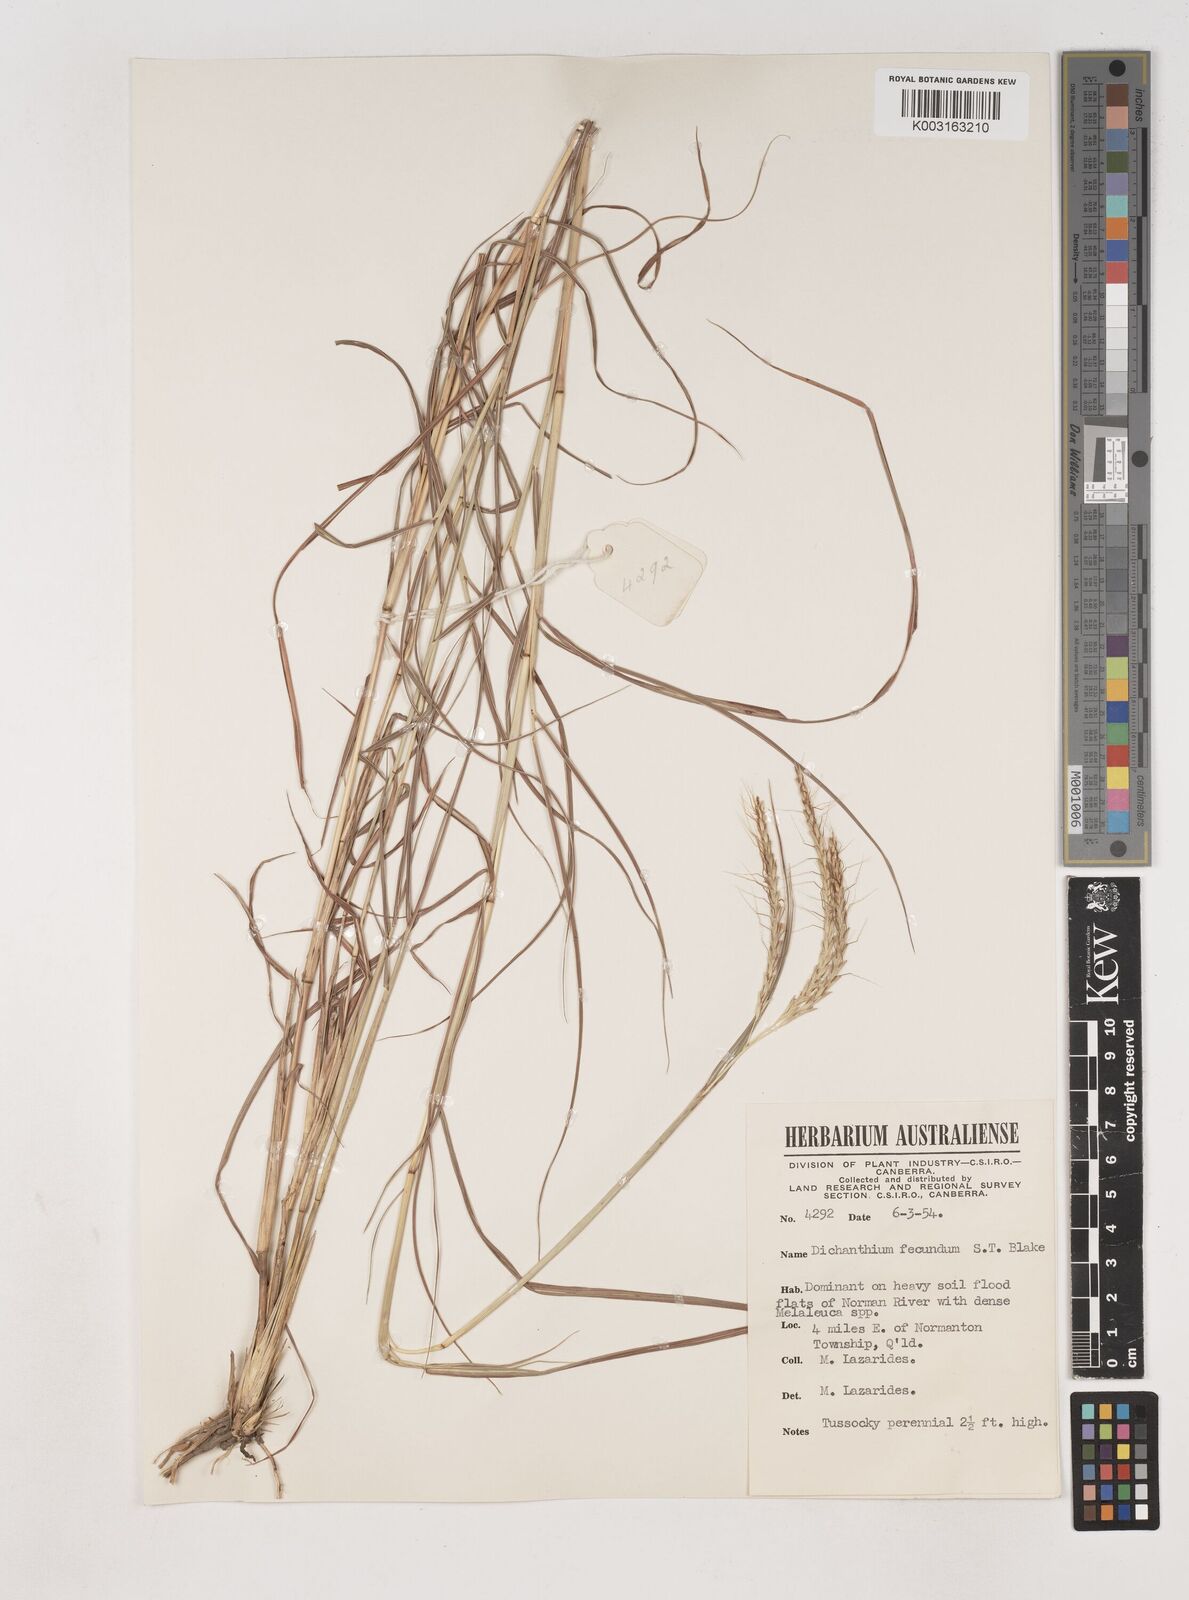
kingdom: Plantae
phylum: Tracheophyta
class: Liliopsida
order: Poales
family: Poaceae
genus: Dichanthium
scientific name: Dichanthium fecundum
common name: Bundle-bundle
